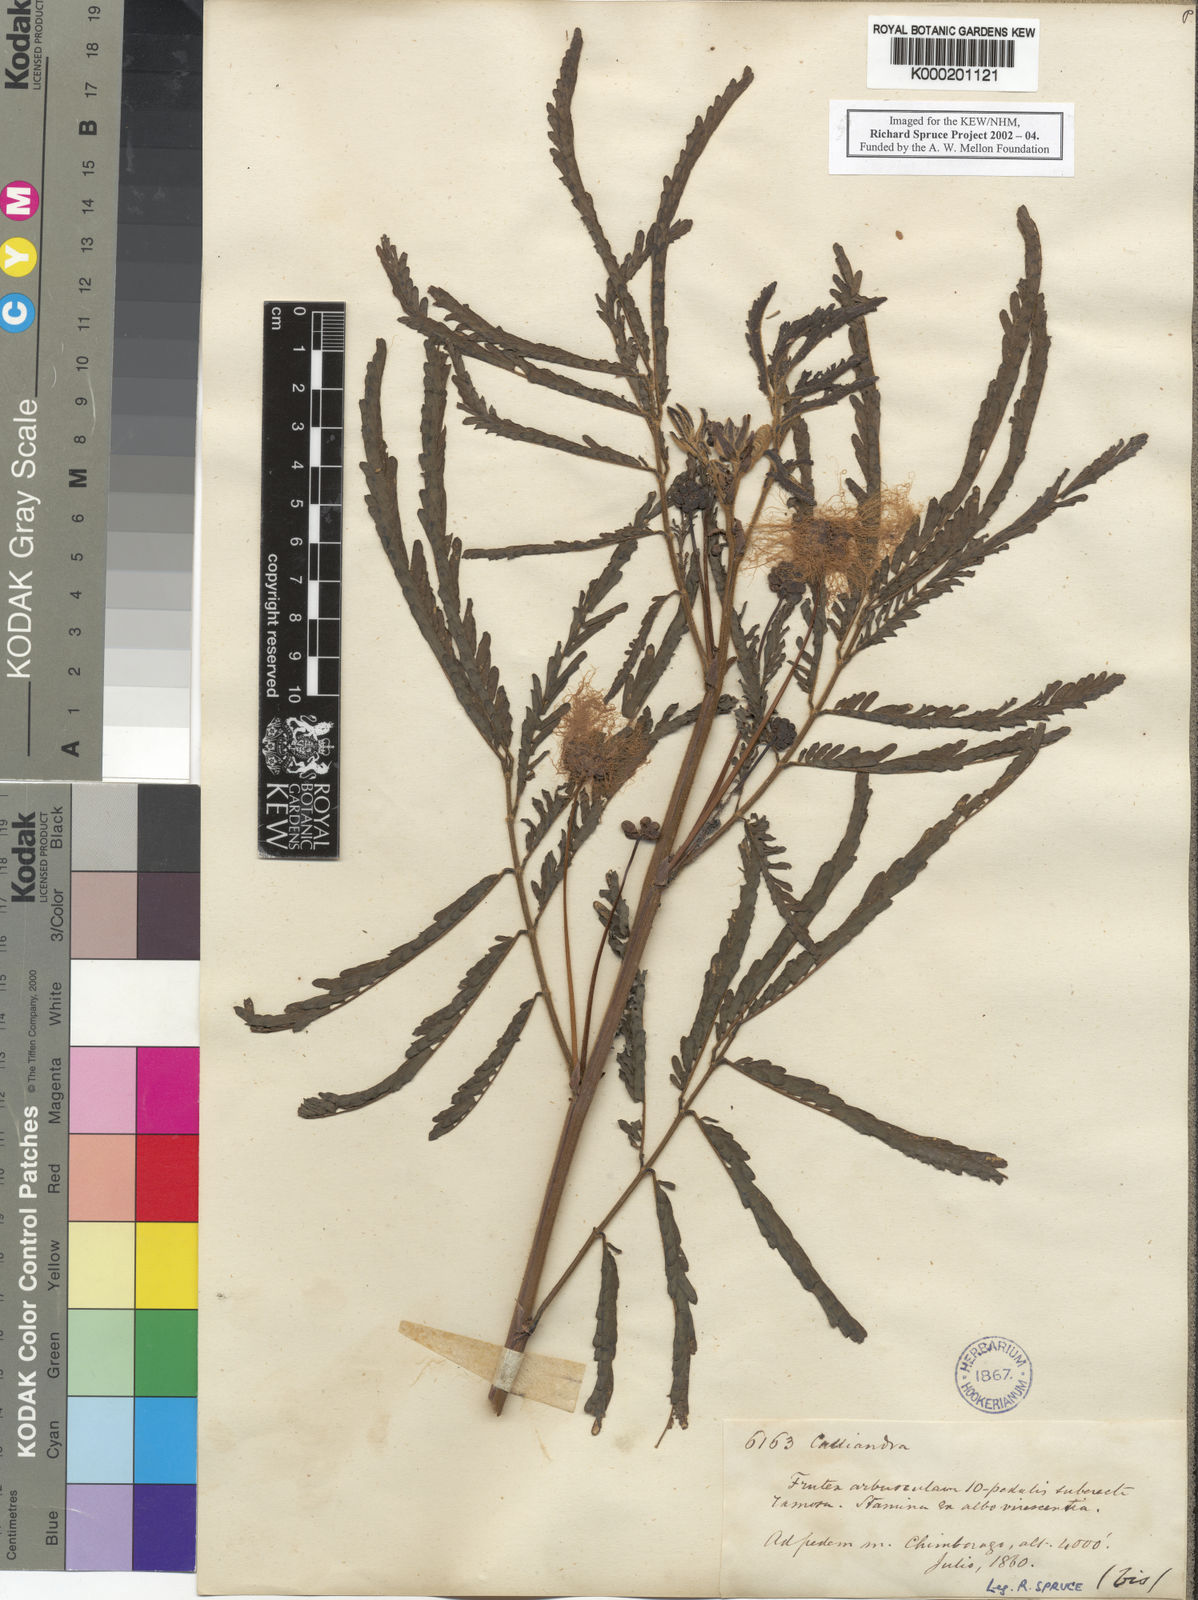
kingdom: Plantae
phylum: Tracheophyta
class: Magnoliopsida
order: Fabales
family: Fabaceae
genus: Zapoteca
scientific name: Zapoteca tetragona
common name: White calliandra
